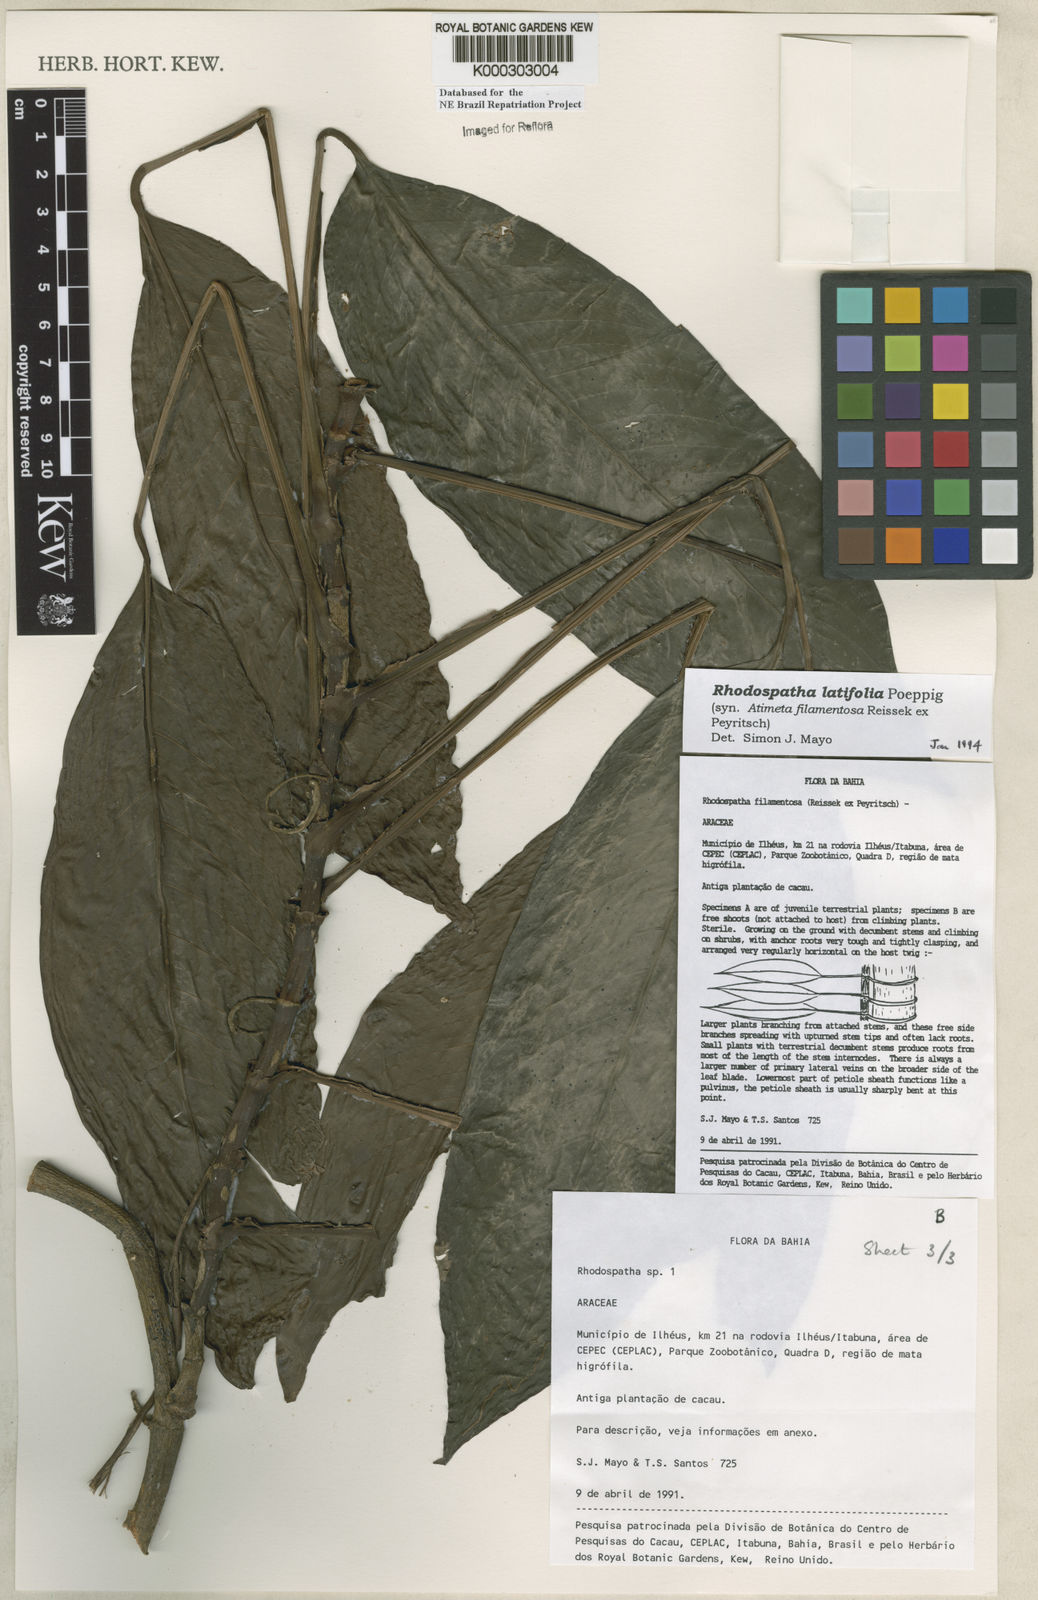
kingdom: Plantae
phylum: Tracheophyta
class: Liliopsida
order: Alismatales
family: Araceae
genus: Rhodospatha
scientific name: Rhodospatha latifolia
